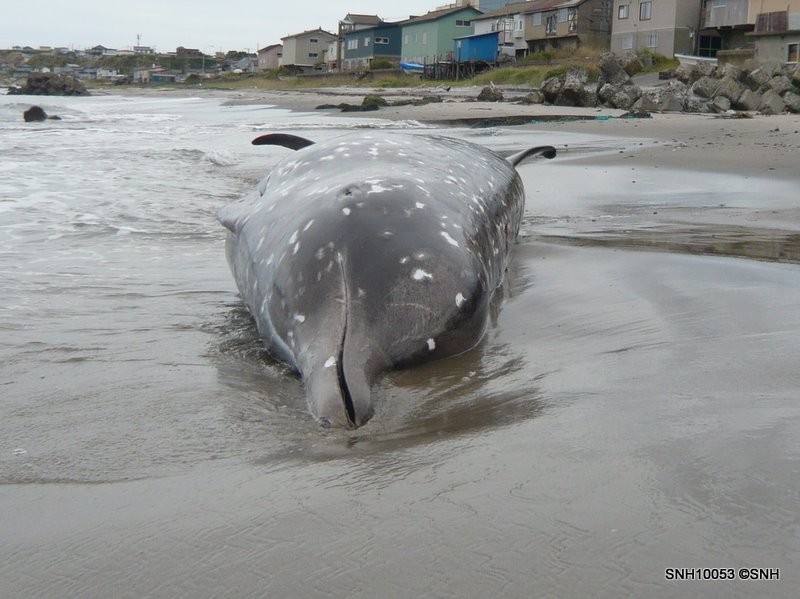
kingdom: Animalia
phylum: Chordata
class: Mammalia
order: Cetacea
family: Hyperoodontidae
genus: Indopacetus
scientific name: Indopacetus pacificus
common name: Longman's beaked whale
